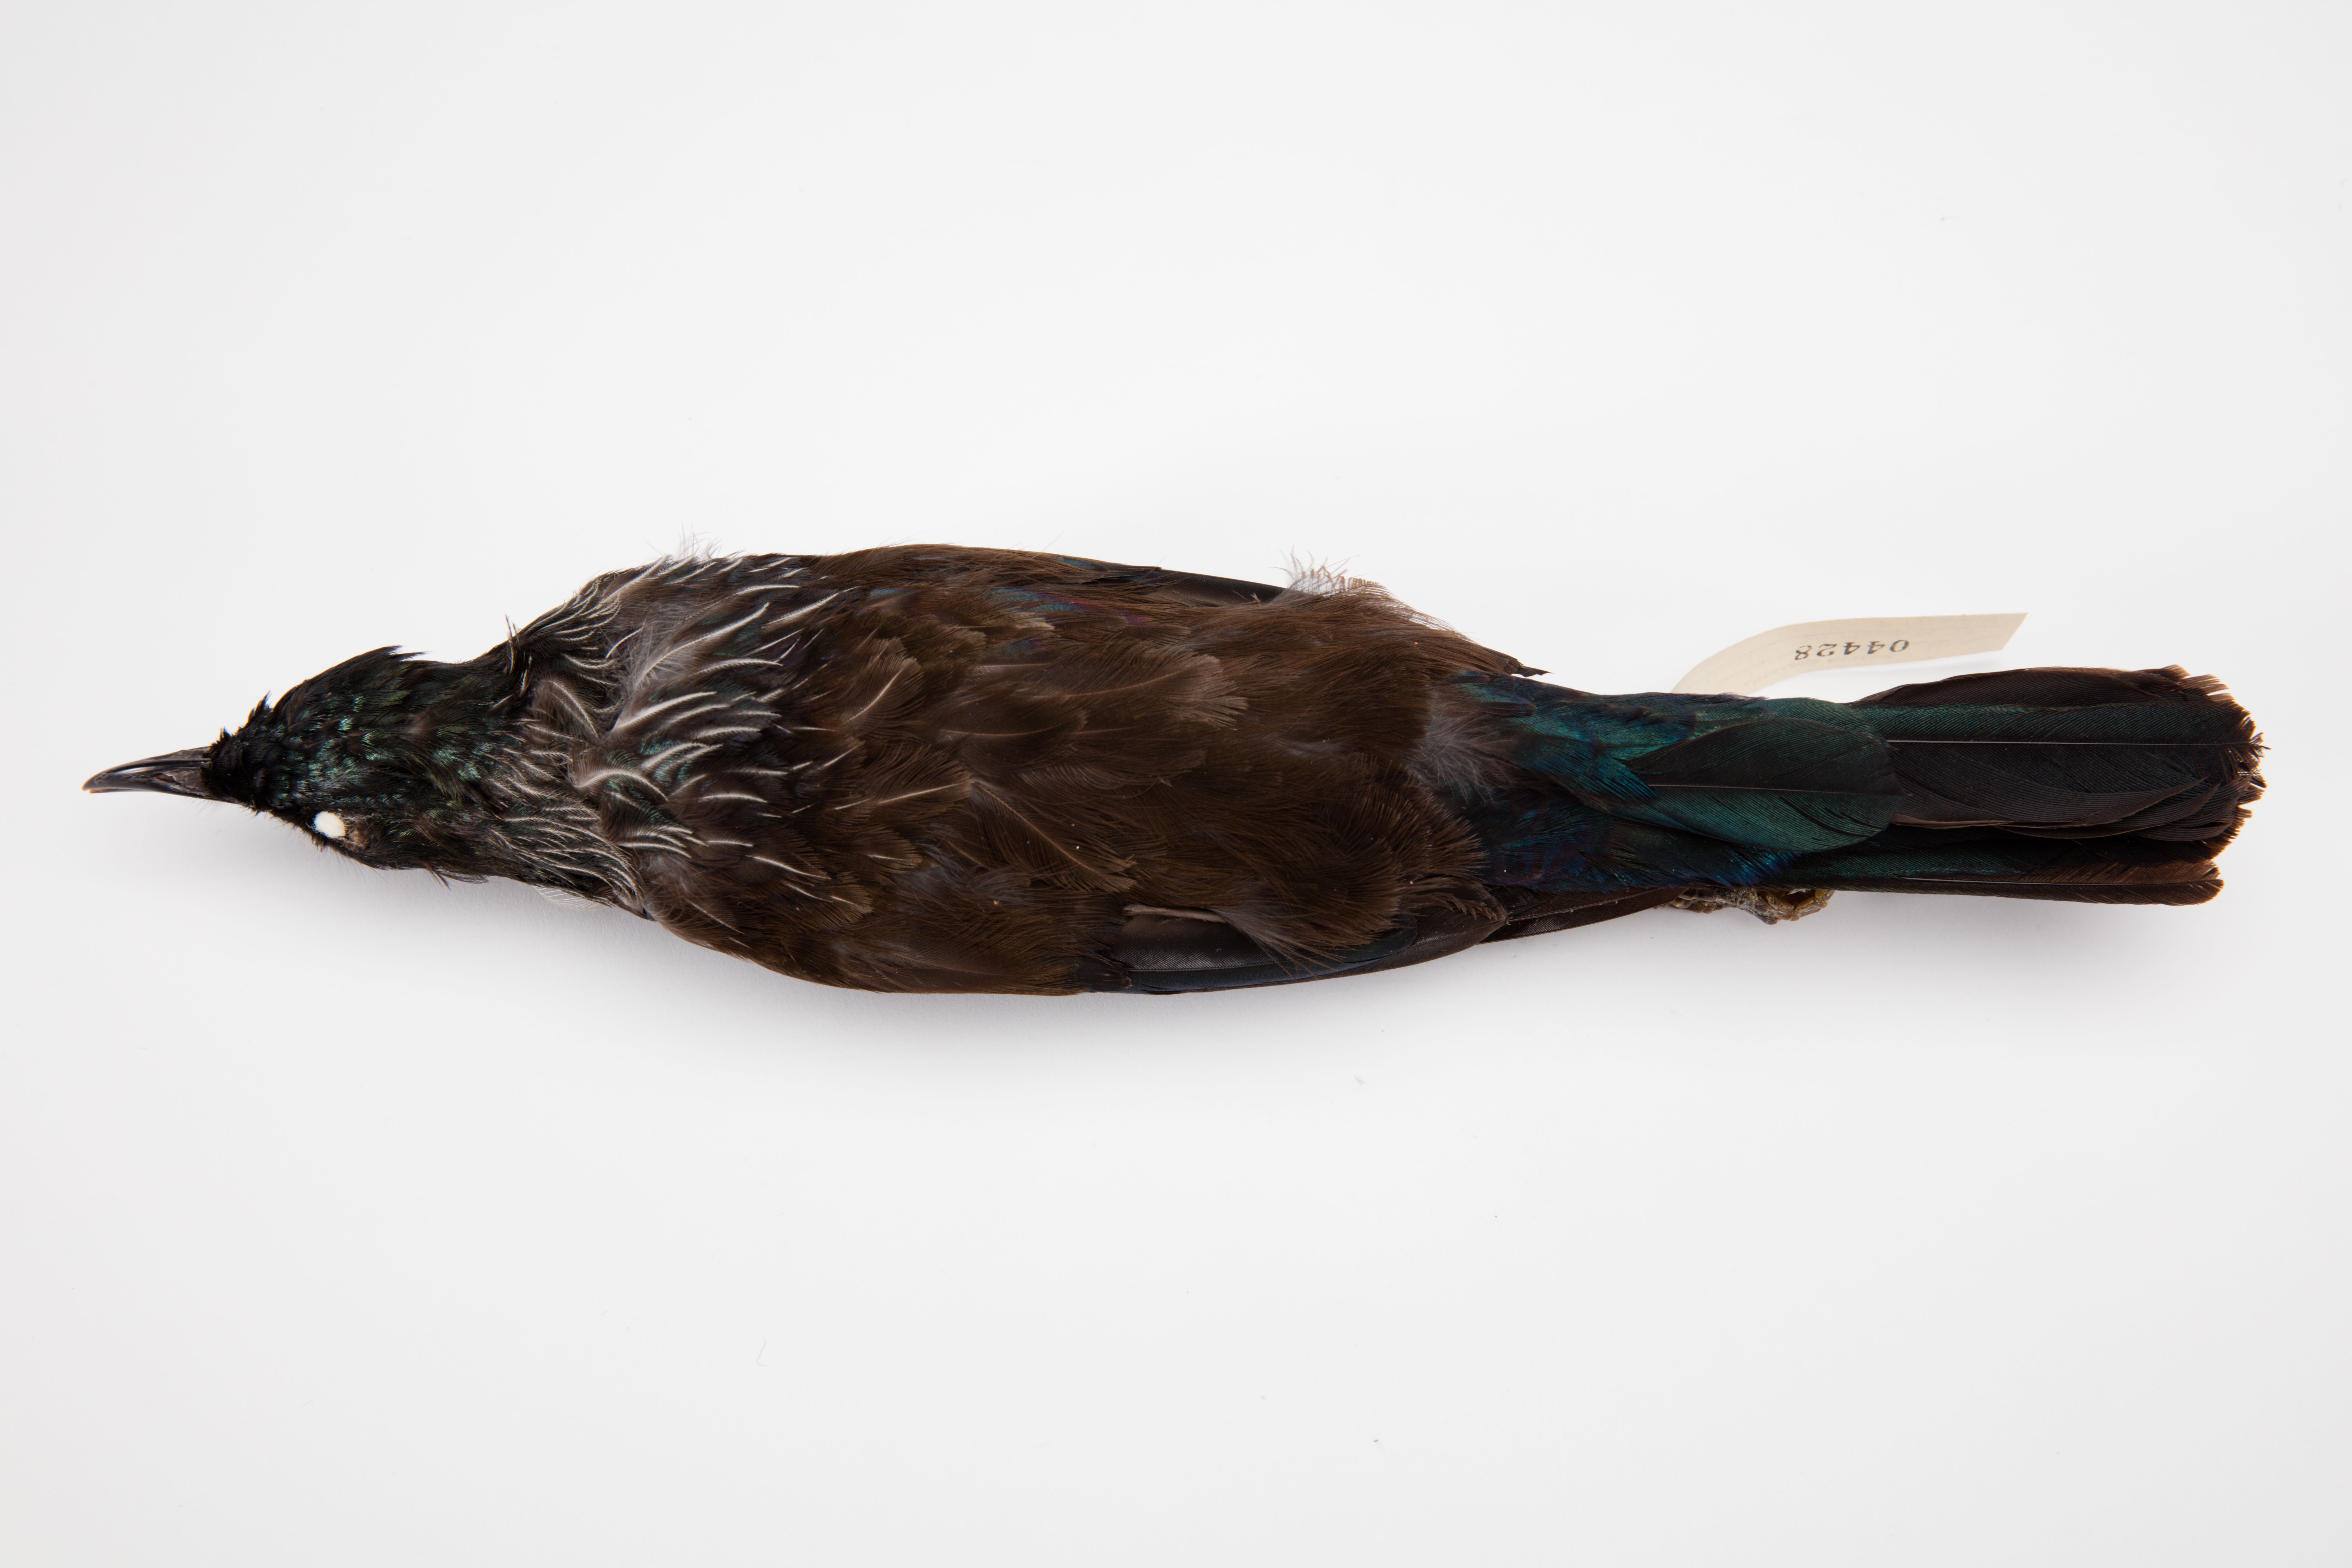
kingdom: Animalia
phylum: Chordata
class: Aves
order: Passeriformes
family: Meliphagidae
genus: Prosthemadera
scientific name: Prosthemadera novaeseelandiae
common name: Tui
